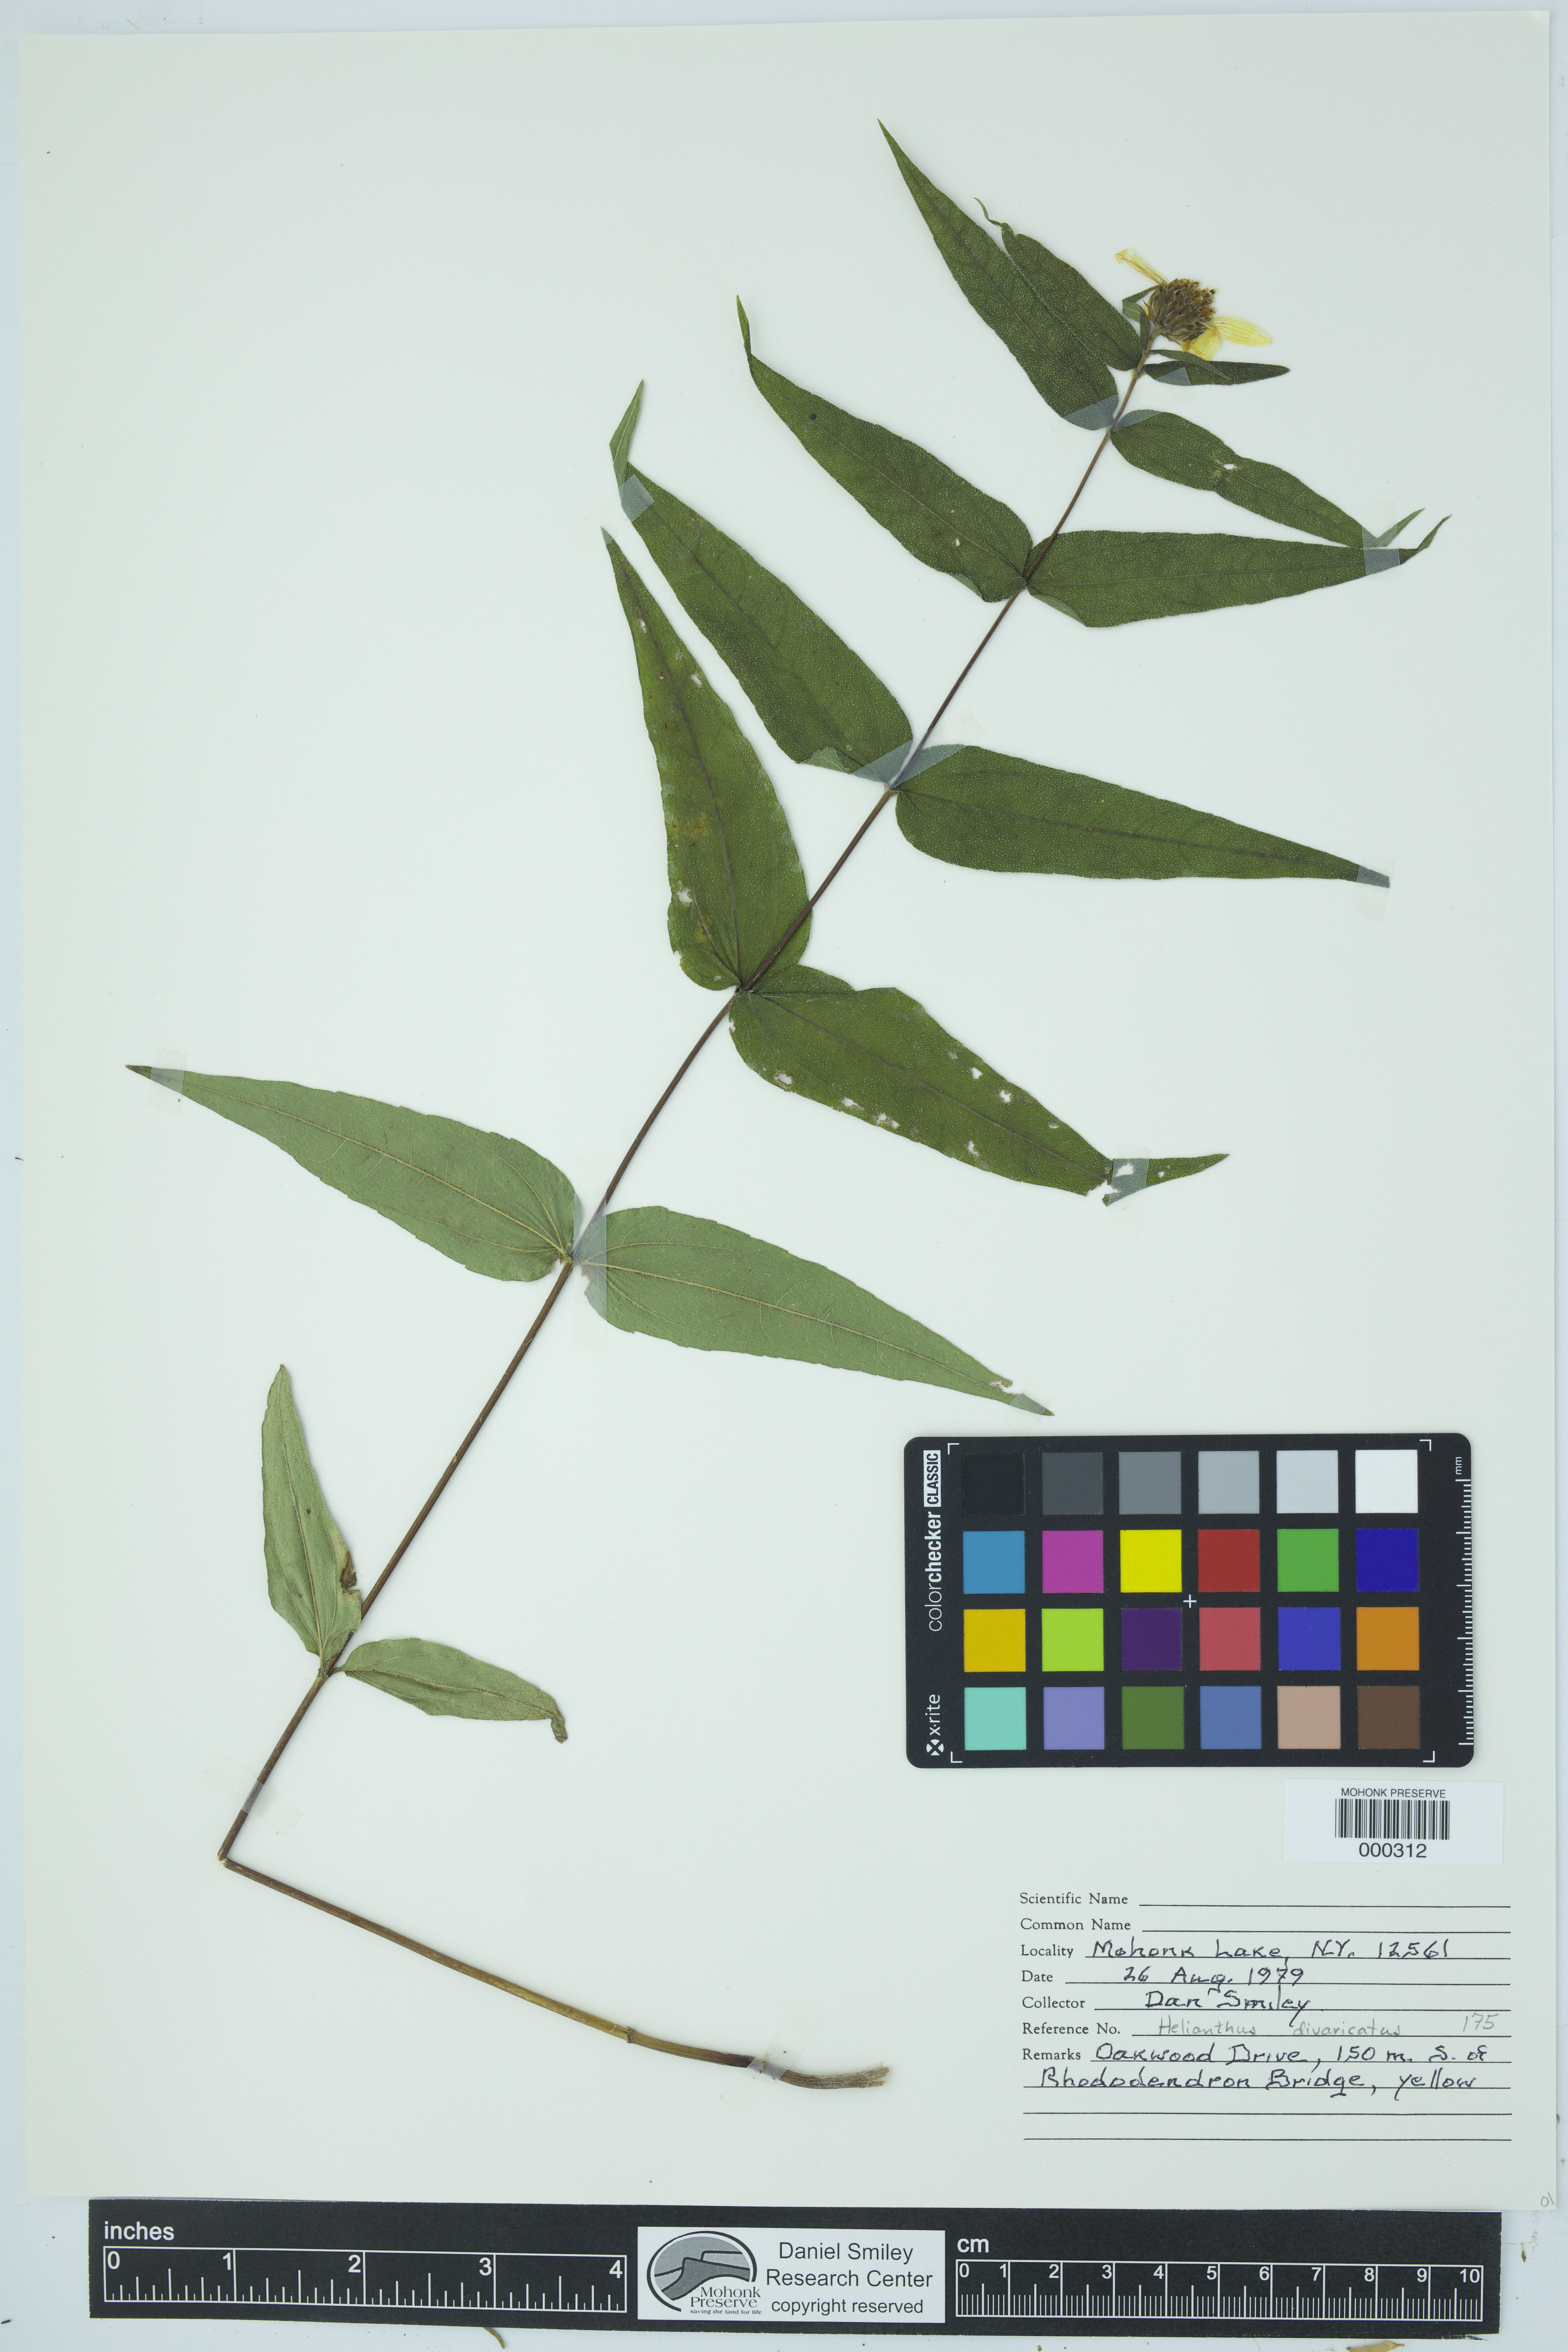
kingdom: Plantae
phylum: Tracheophyta
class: Magnoliopsida
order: Asterales
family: Asteraceae
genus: Helianthus
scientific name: Helianthus divaricatus
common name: Divergent sunflower
